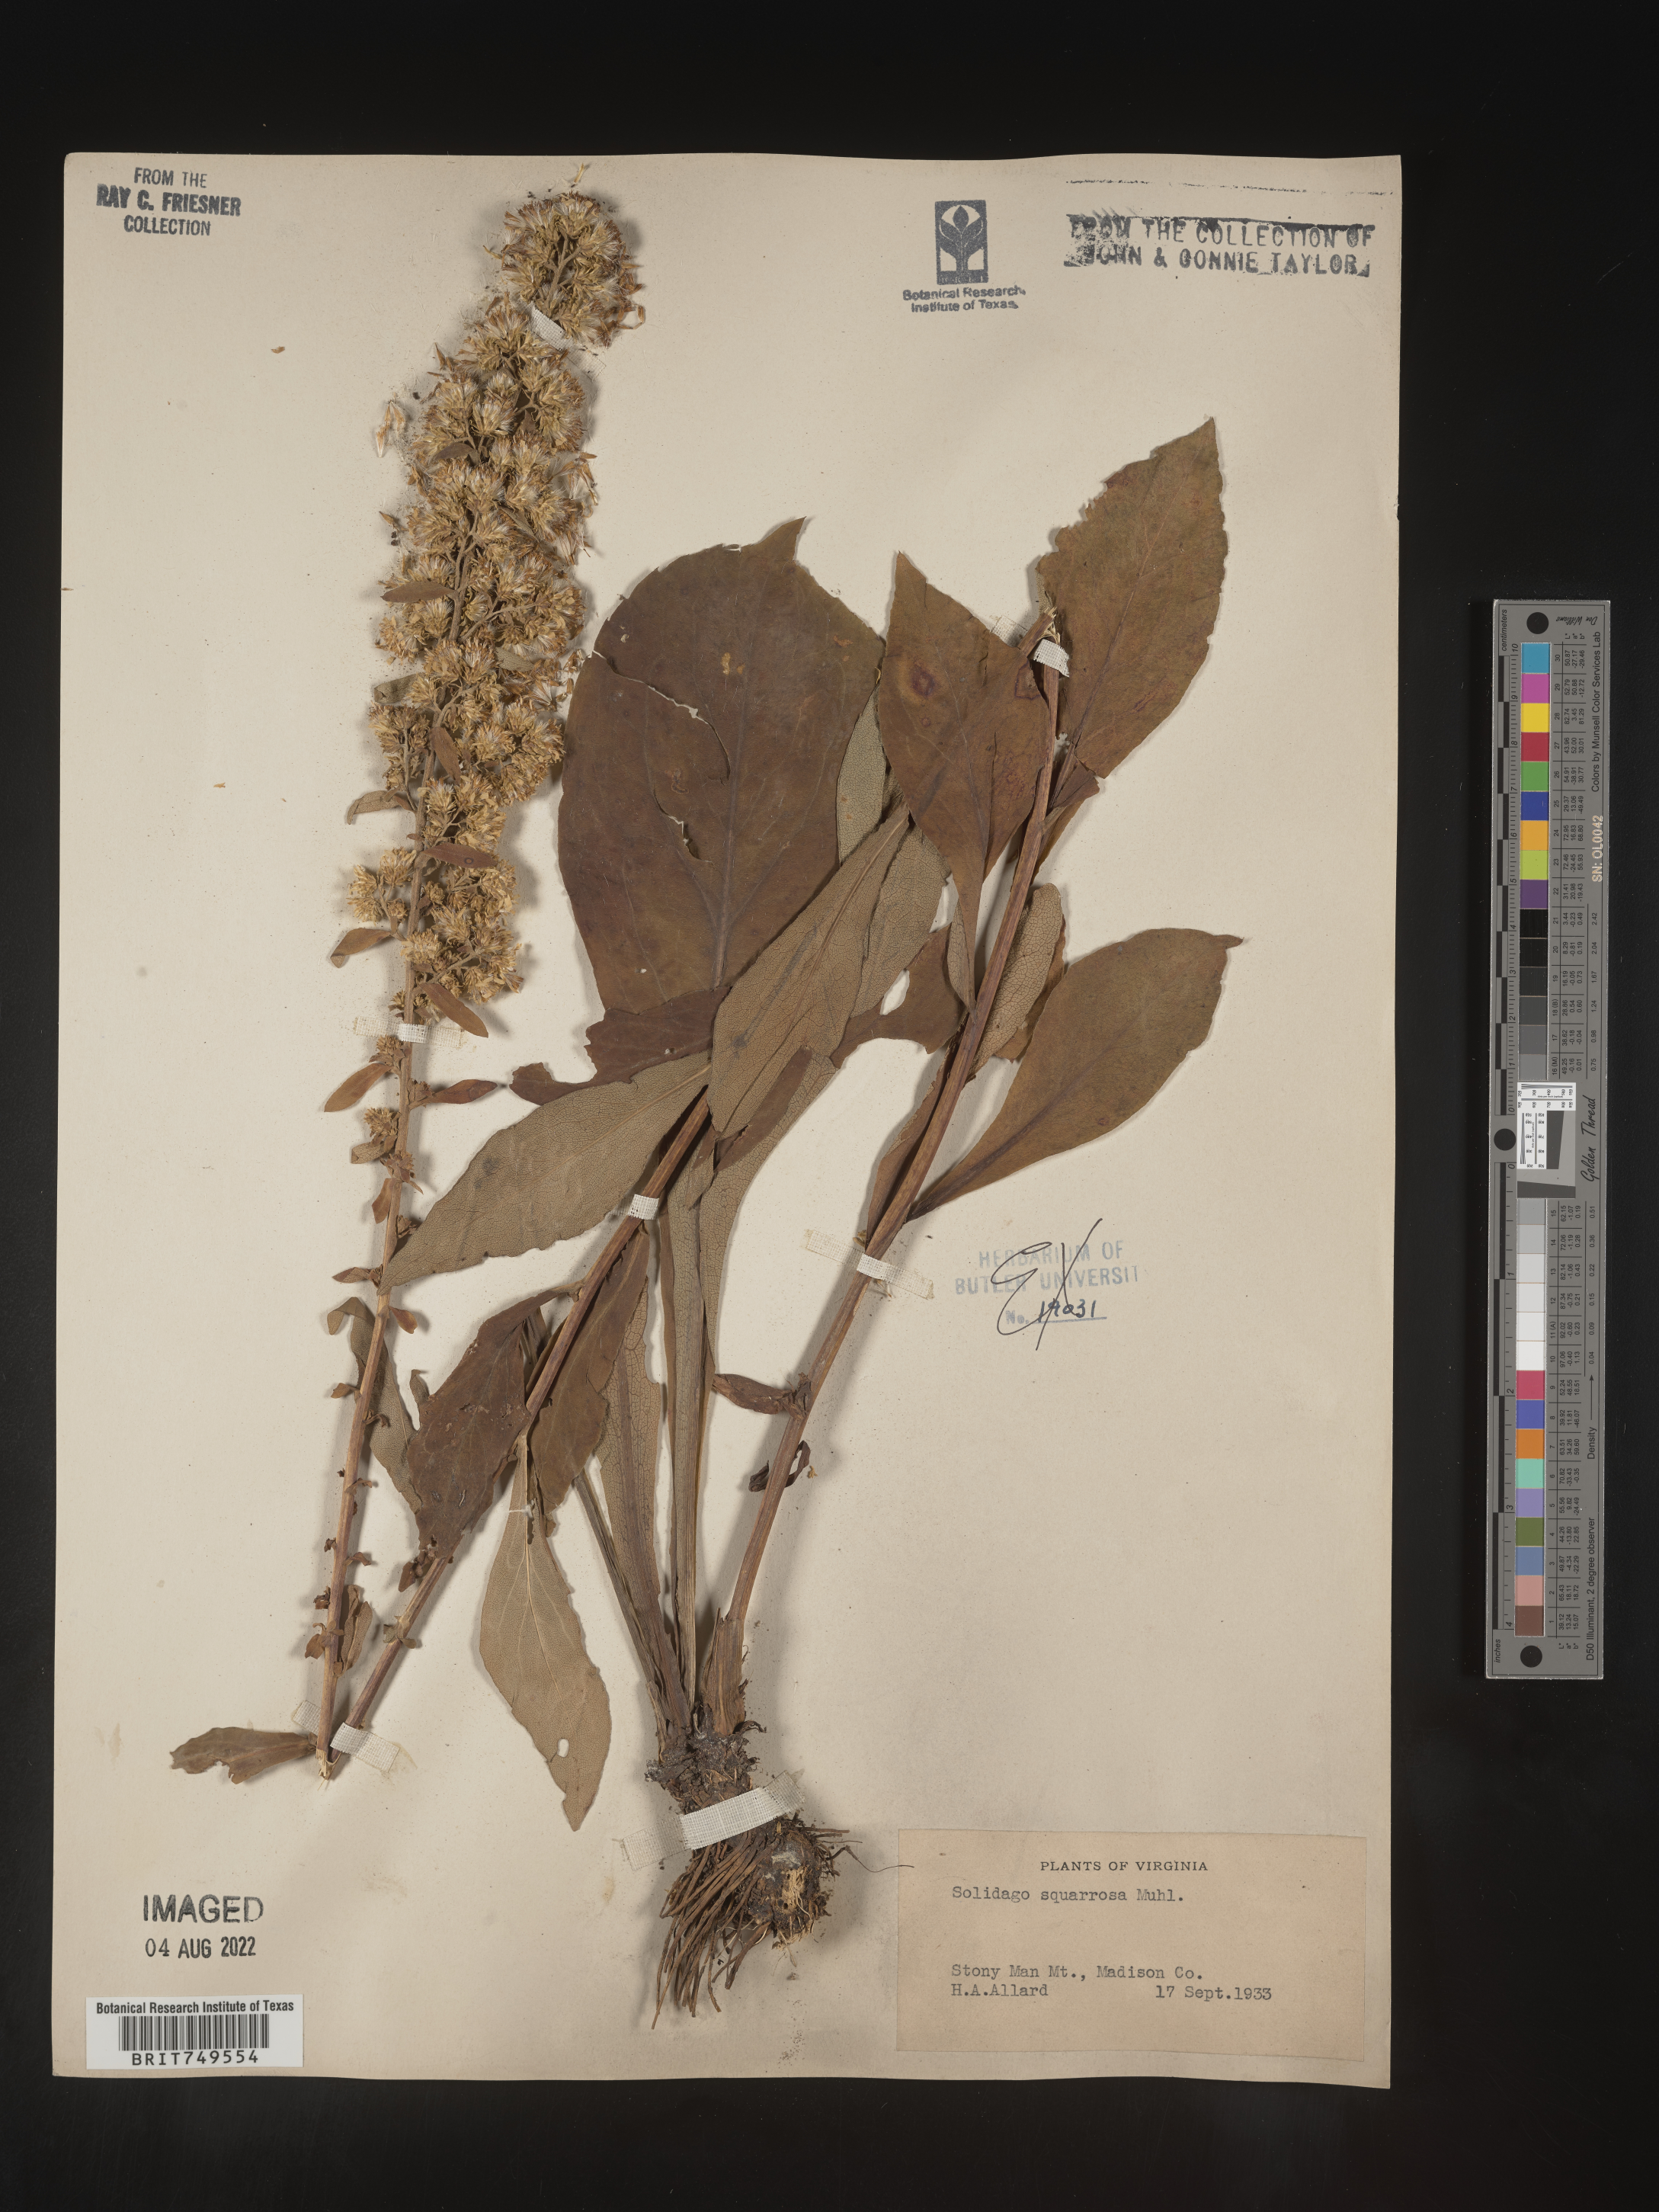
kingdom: Plantae
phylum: Tracheophyta
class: Magnoliopsida
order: Asterales
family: Asteraceae
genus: Solidago
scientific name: Solidago squarrosa
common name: Stout goldenrod
